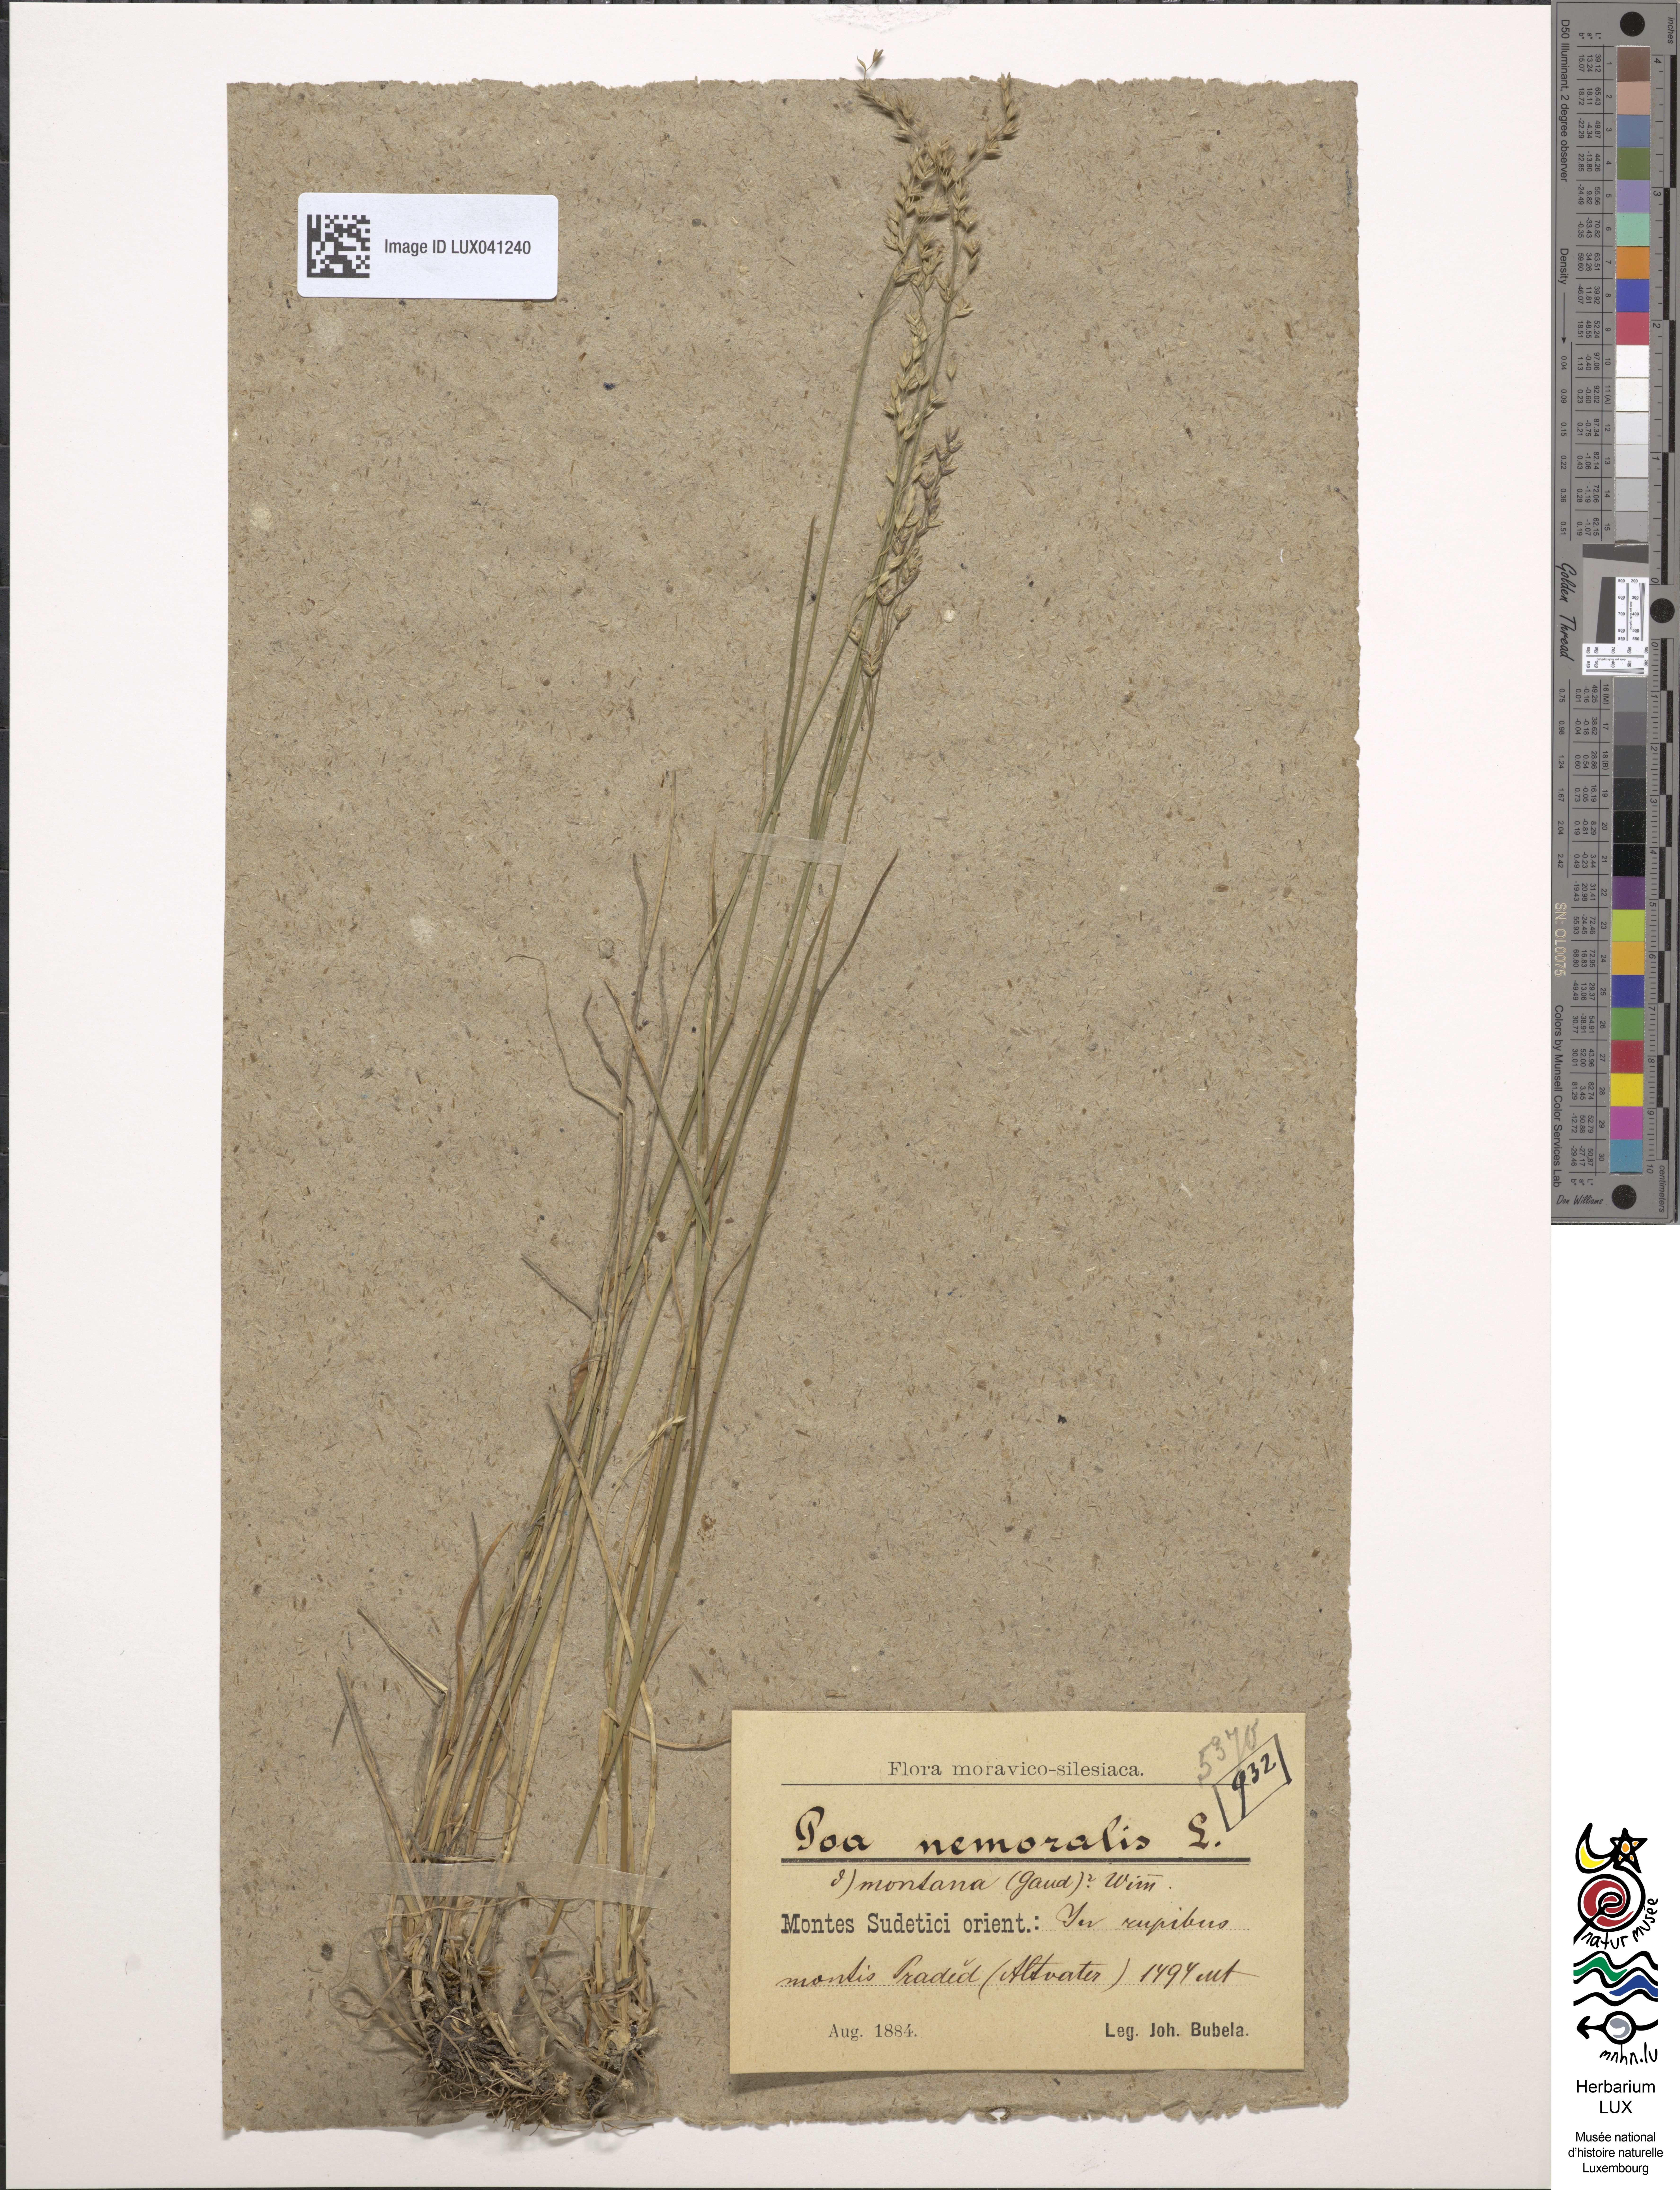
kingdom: Plantae
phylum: Tracheophyta
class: Liliopsida
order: Poales
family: Poaceae
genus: Poa
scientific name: Poa nemoralis
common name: Wood bluegrass
